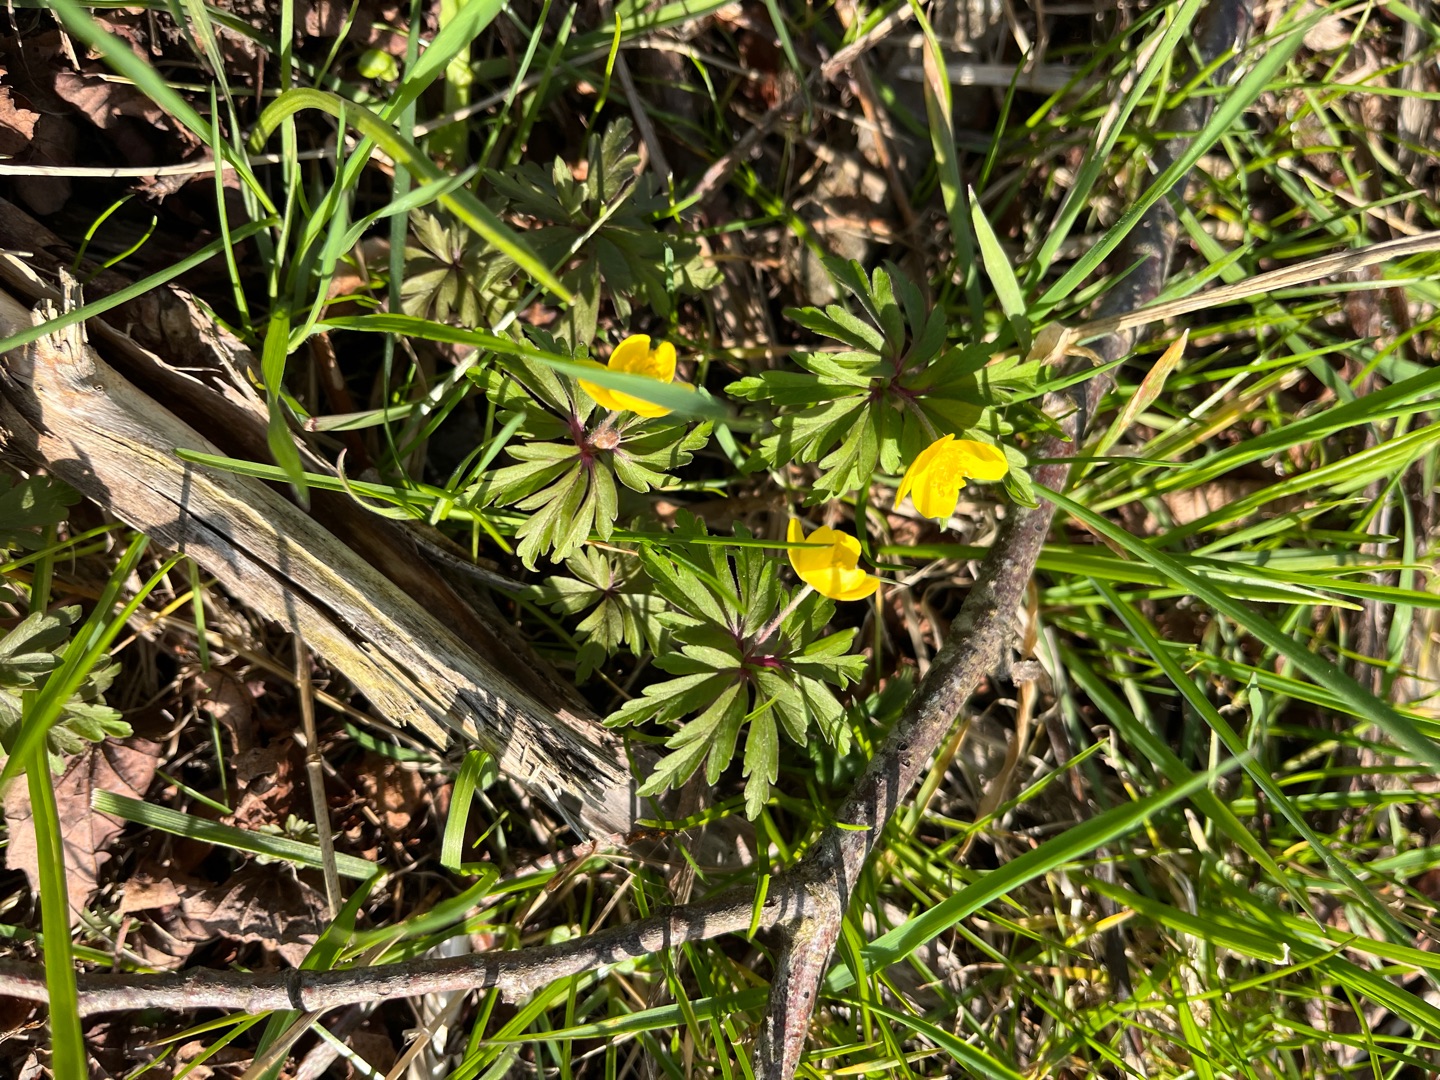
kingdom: Plantae
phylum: Tracheophyta
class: Magnoliopsida
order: Ranunculales
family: Ranunculaceae
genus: Anemone
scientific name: Anemone ranunculoides
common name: Gul anemone
